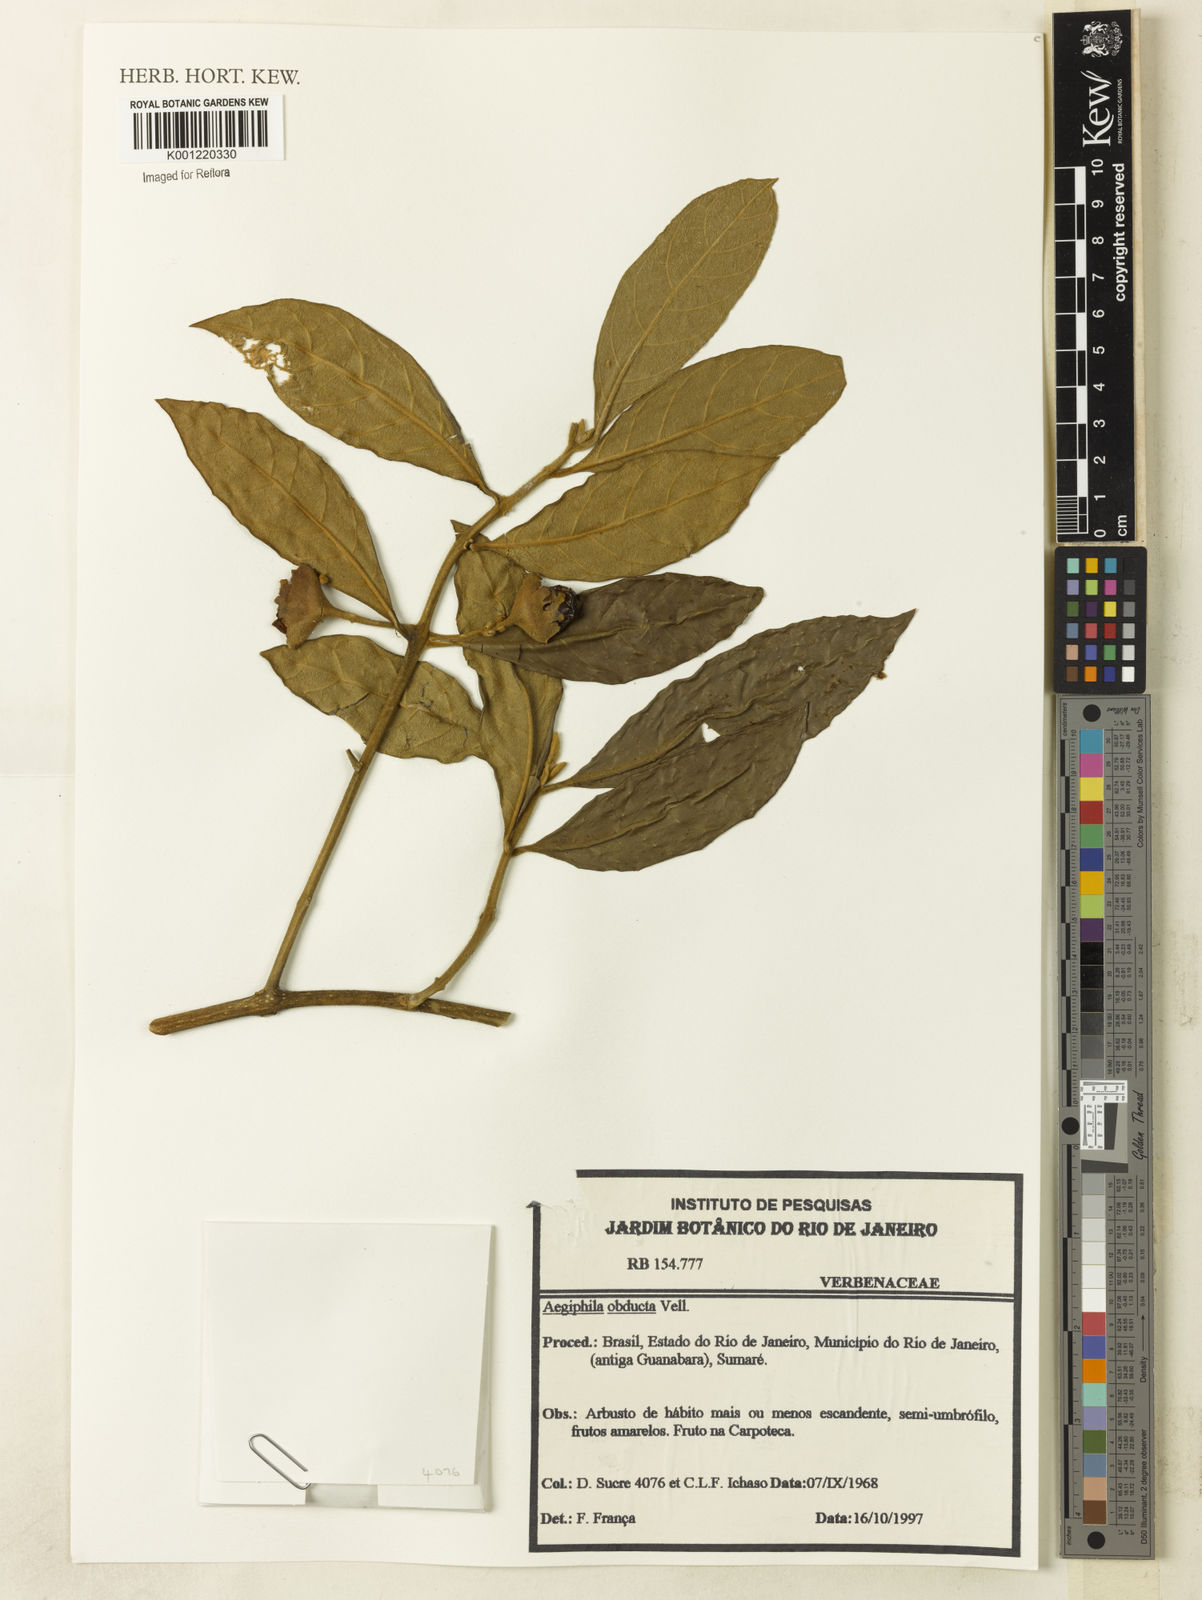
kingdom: Plantae
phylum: Tracheophyta
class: Magnoliopsida
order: Lamiales
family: Lamiaceae
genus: Aegiphila
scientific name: Aegiphila obducta
